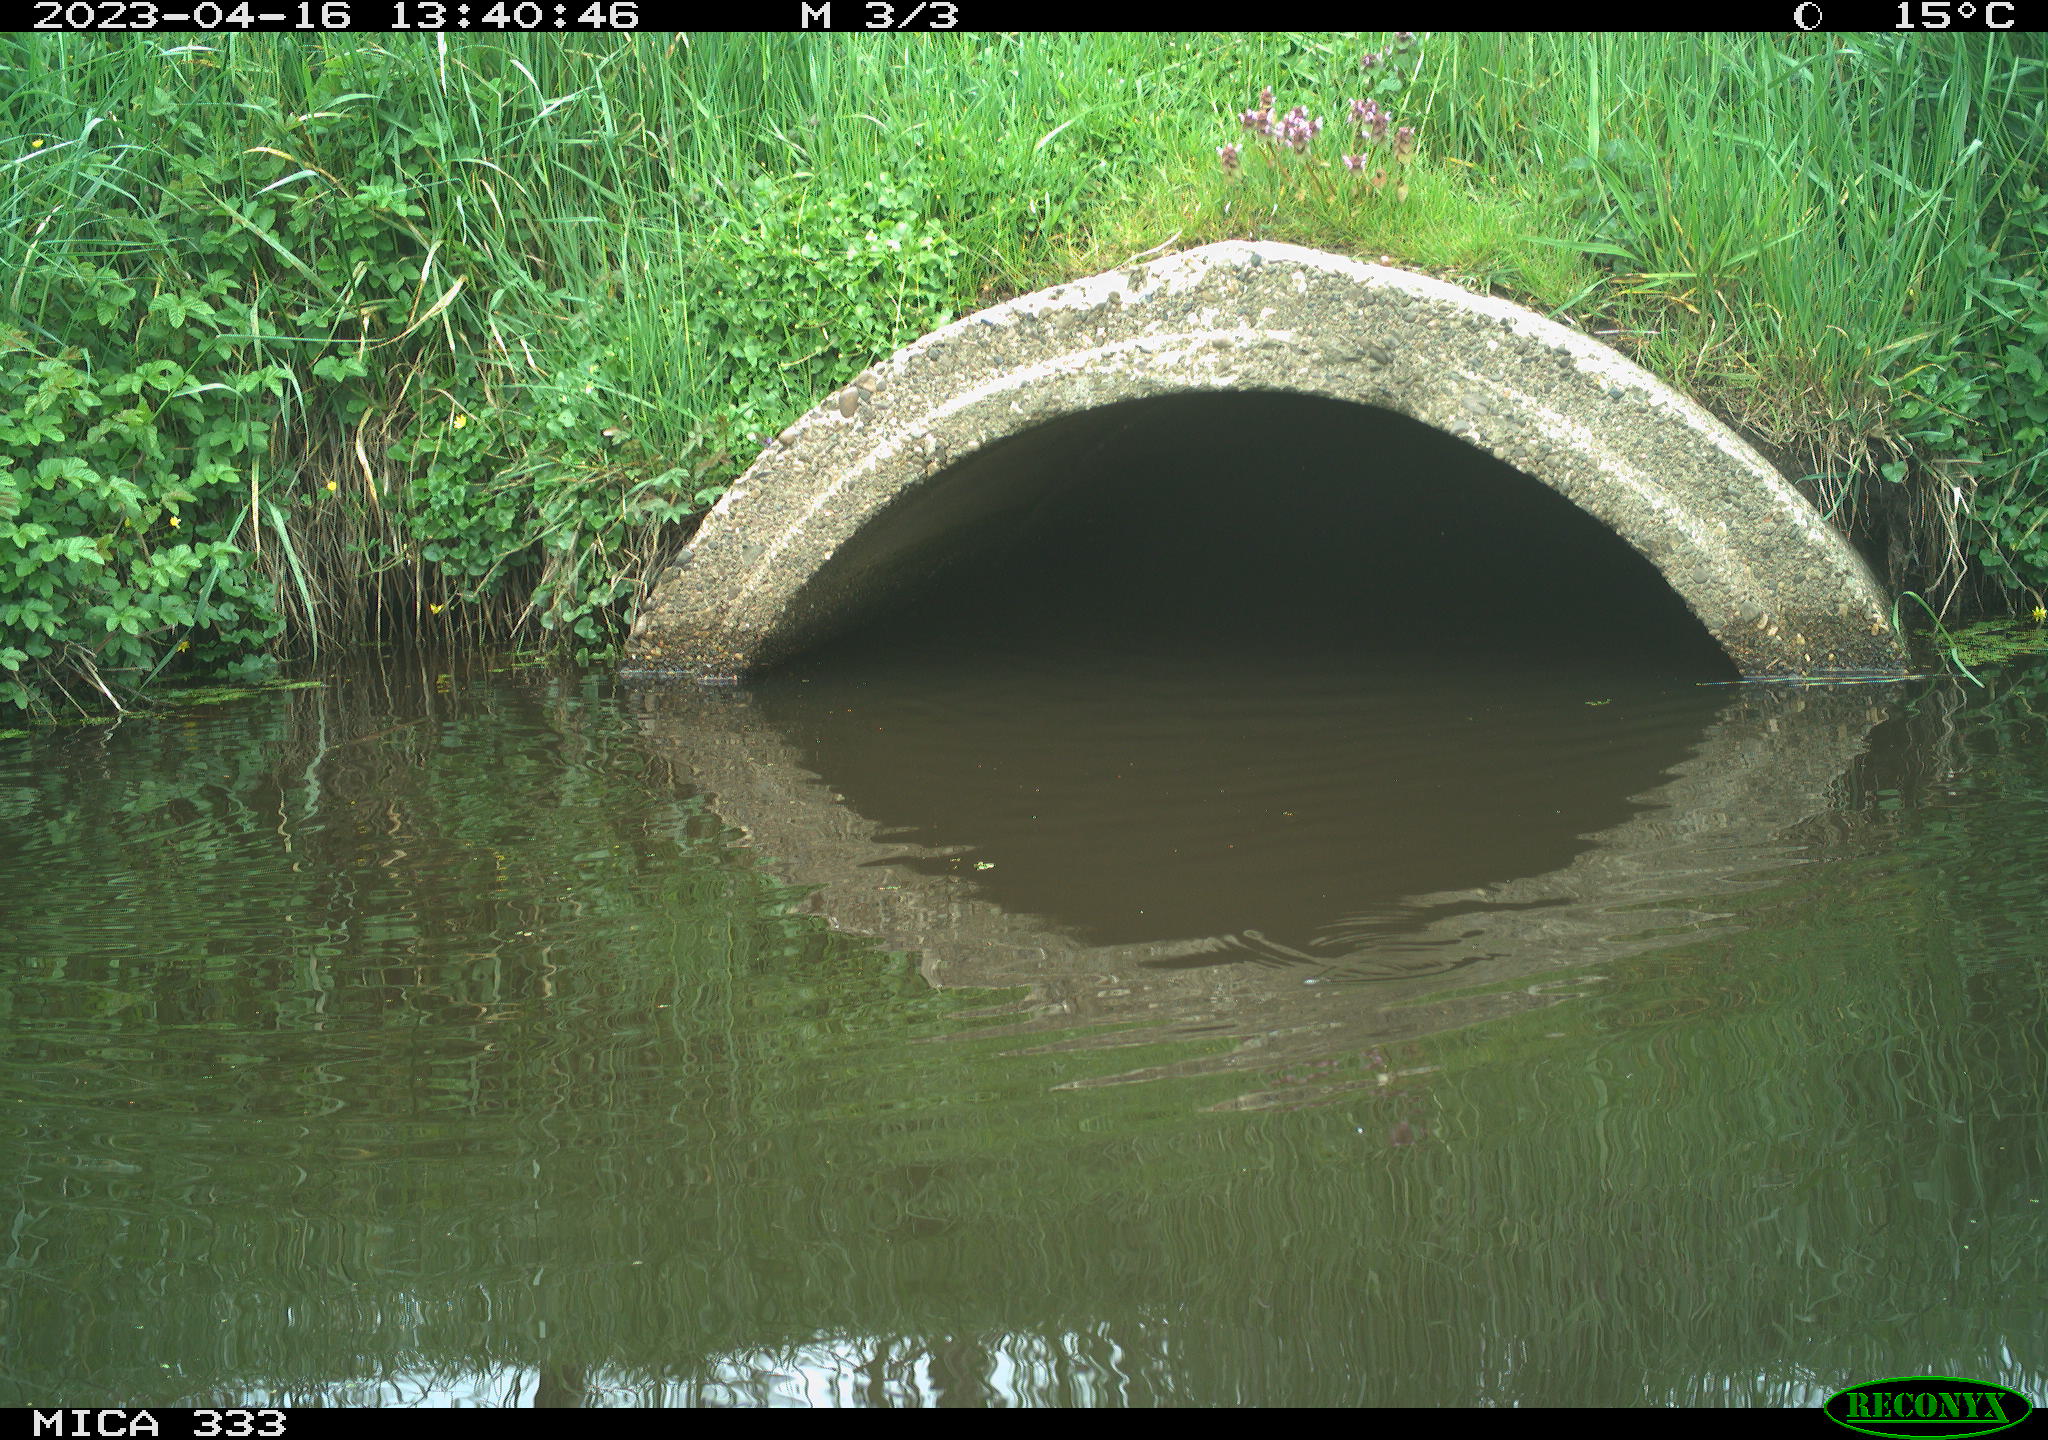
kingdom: Animalia
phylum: Chordata
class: Aves
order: Gruiformes
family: Rallidae
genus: Gallinula
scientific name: Gallinula chloropus
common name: Common moorhen
